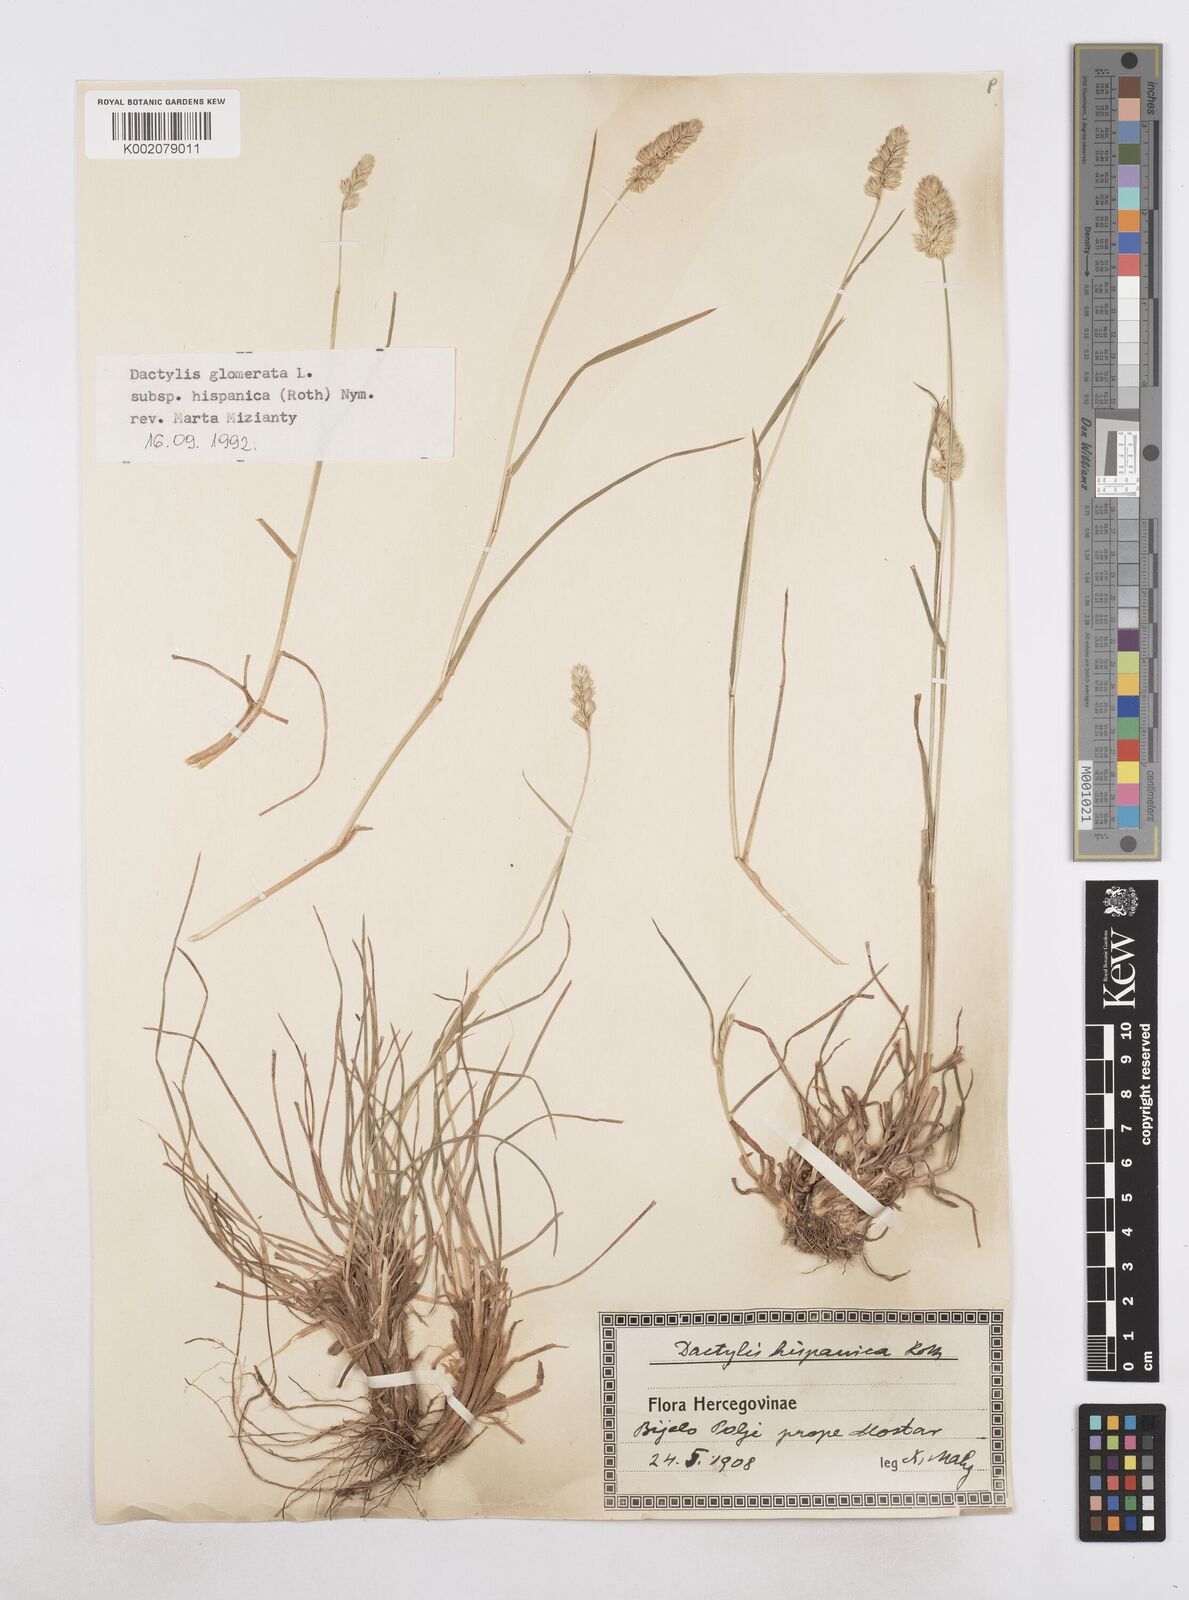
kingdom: Plantae
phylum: Tracheophyta
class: Liliopsida
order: Poales
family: Poaceae
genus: Dactylis
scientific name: Dactylis glomerata
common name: Orchardgrass
